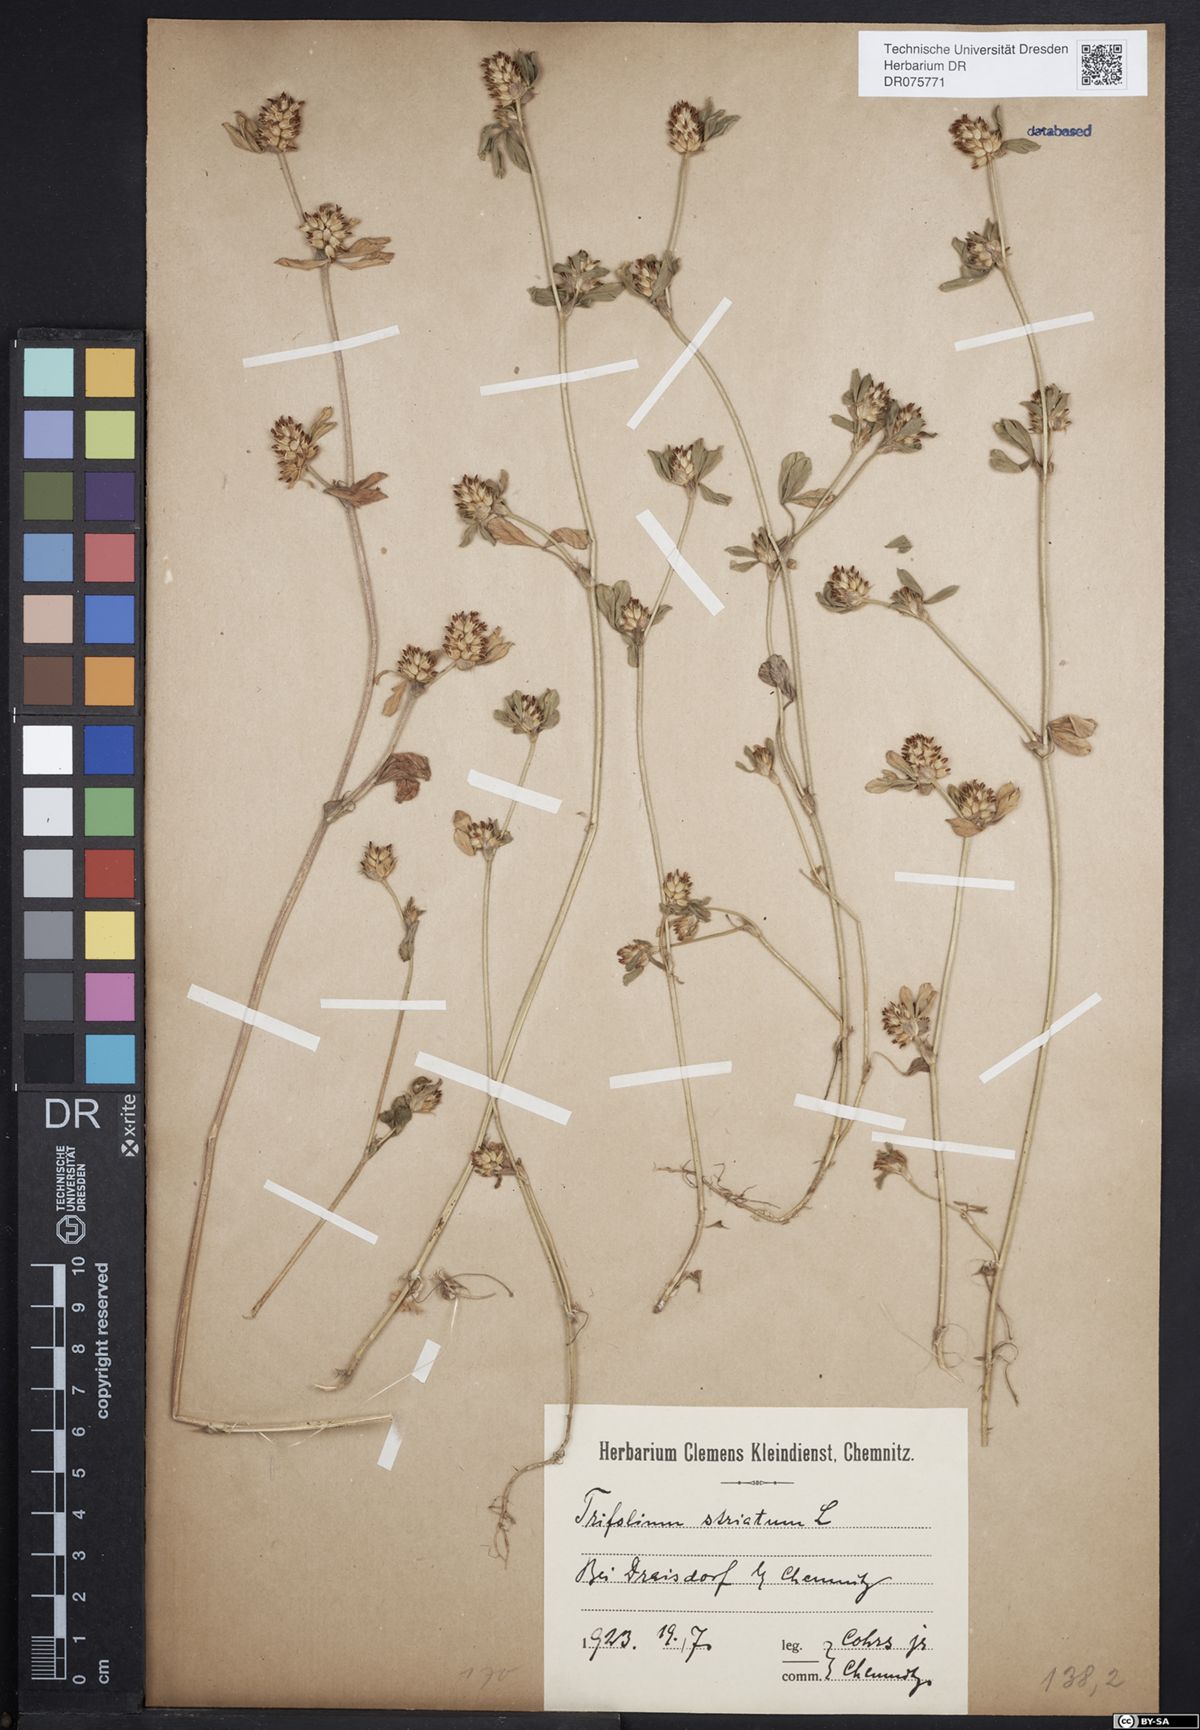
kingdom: Plantae
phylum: Tracheophyta
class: Magnoliopsida
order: Fabales
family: Fabaceae
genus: Trifolium
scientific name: Trifolium striatum
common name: Knotted clover
